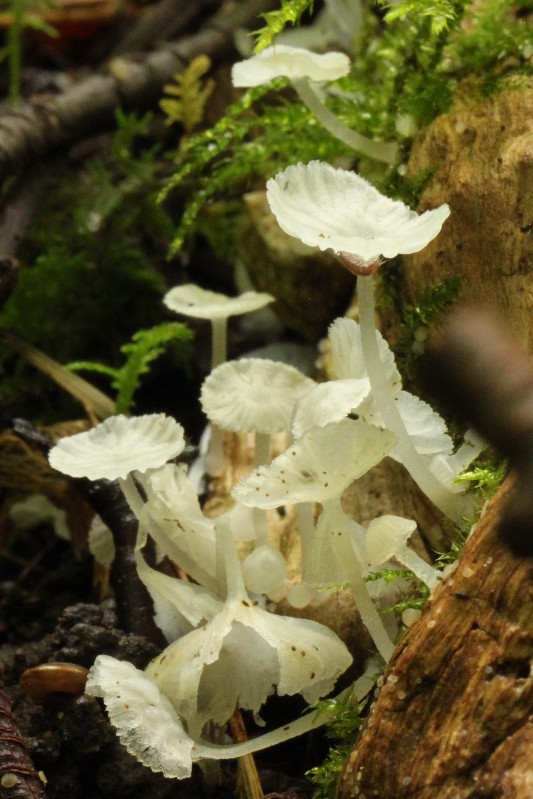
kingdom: Fungi
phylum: Basidiomycota
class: Agaricomycetes
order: Agaricales
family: Tricholomataceae
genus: Delicatula
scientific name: Delicatula integrella
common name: slørhuesvamp
